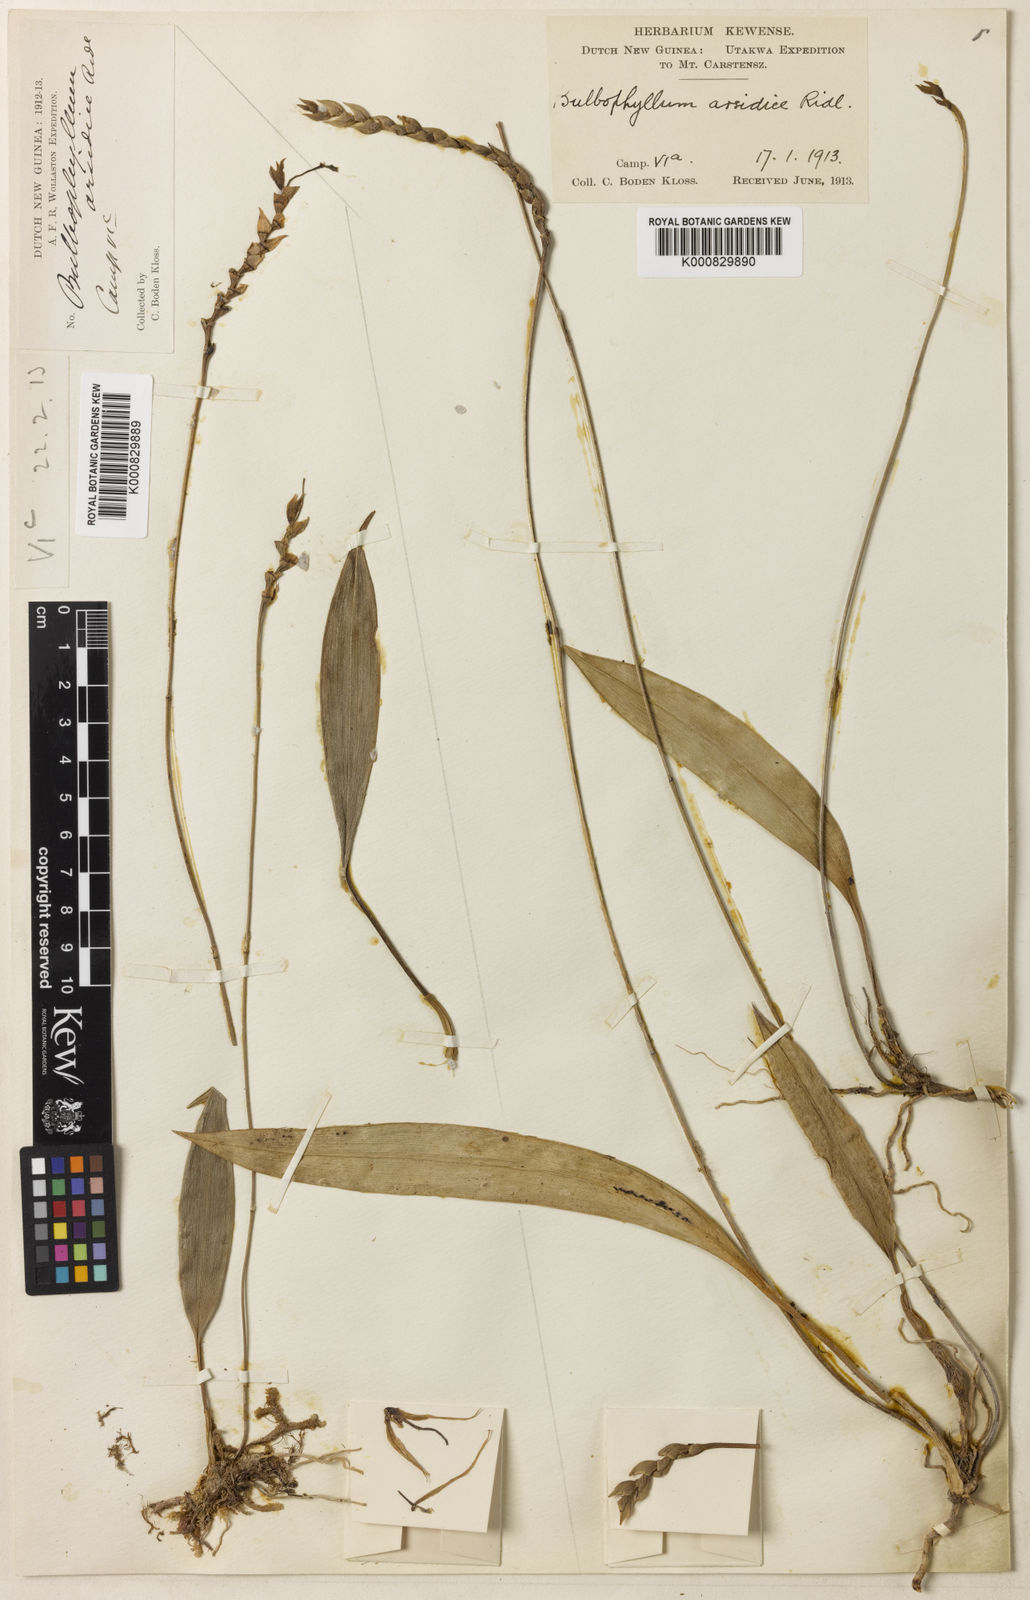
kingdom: Plantae
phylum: Tracheophyta
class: Liliopsida
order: Asparagales
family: Orchidaceae
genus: Bulbophyllum
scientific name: Bulbophyllum orsidice
